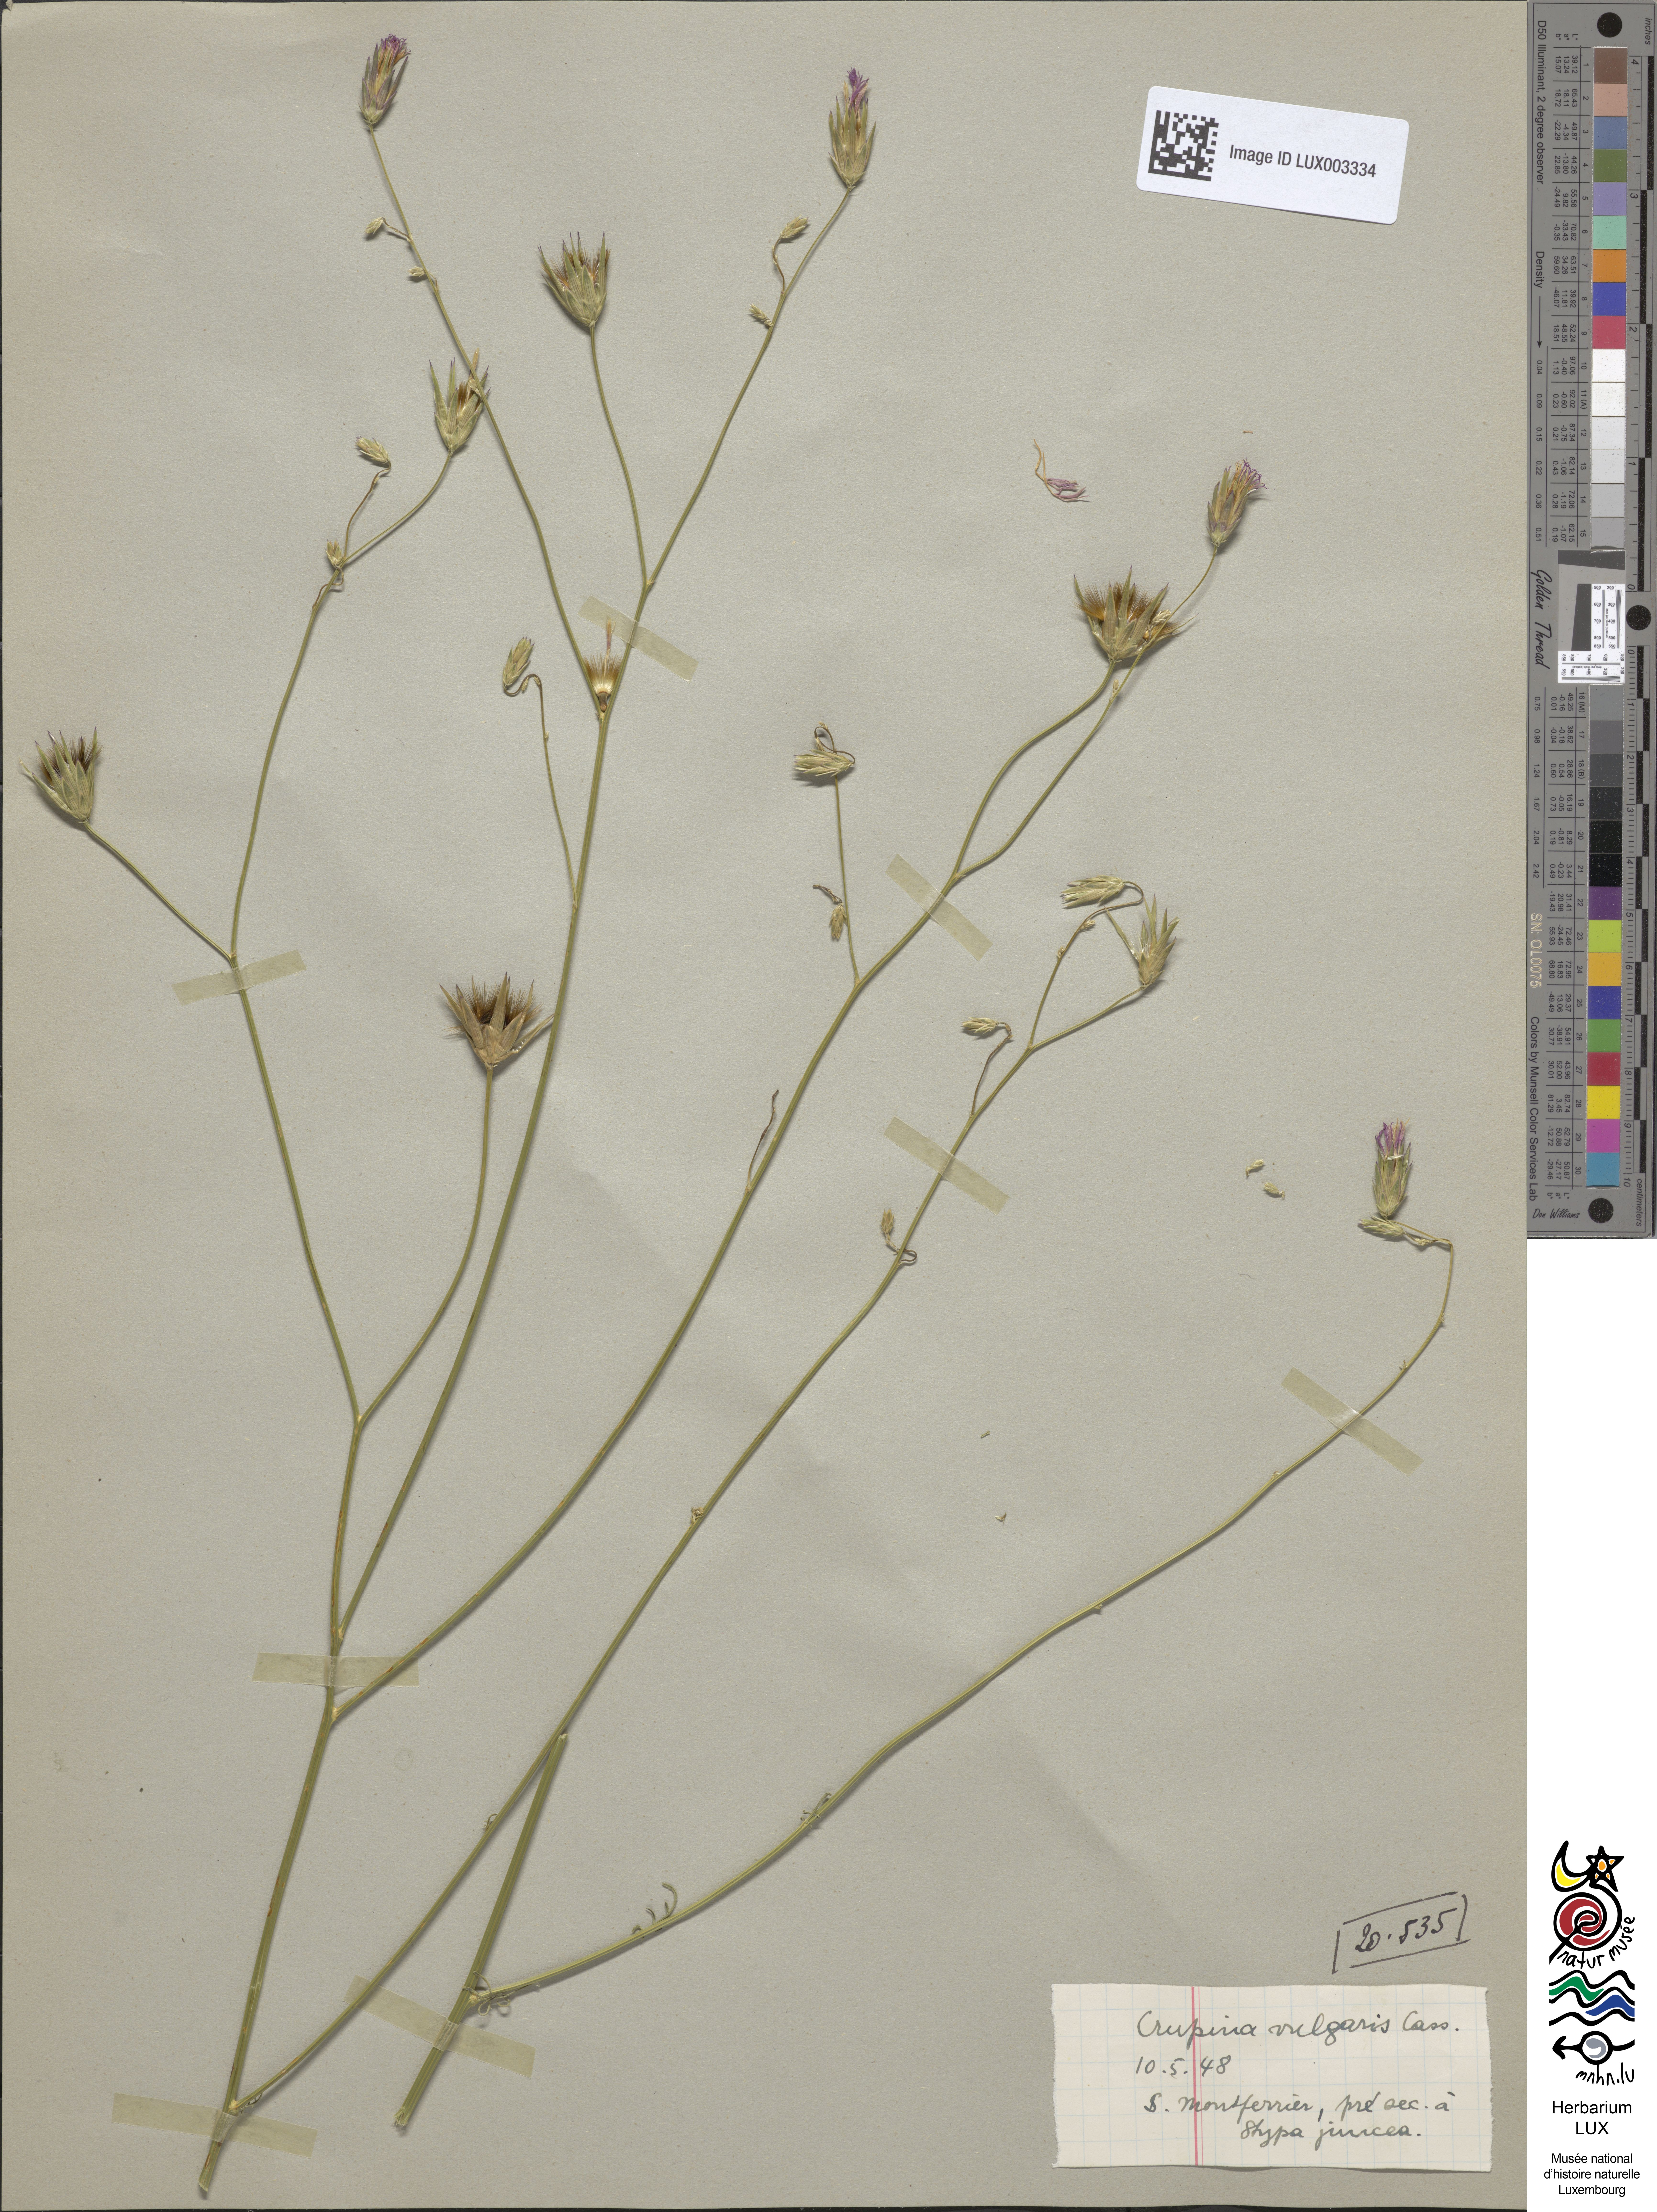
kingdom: Plantae
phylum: Tracheophyta
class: Magnoliopsida
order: Asterales
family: Asteraceae
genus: Crupina
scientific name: Crupina vulgaris
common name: Common crupina
